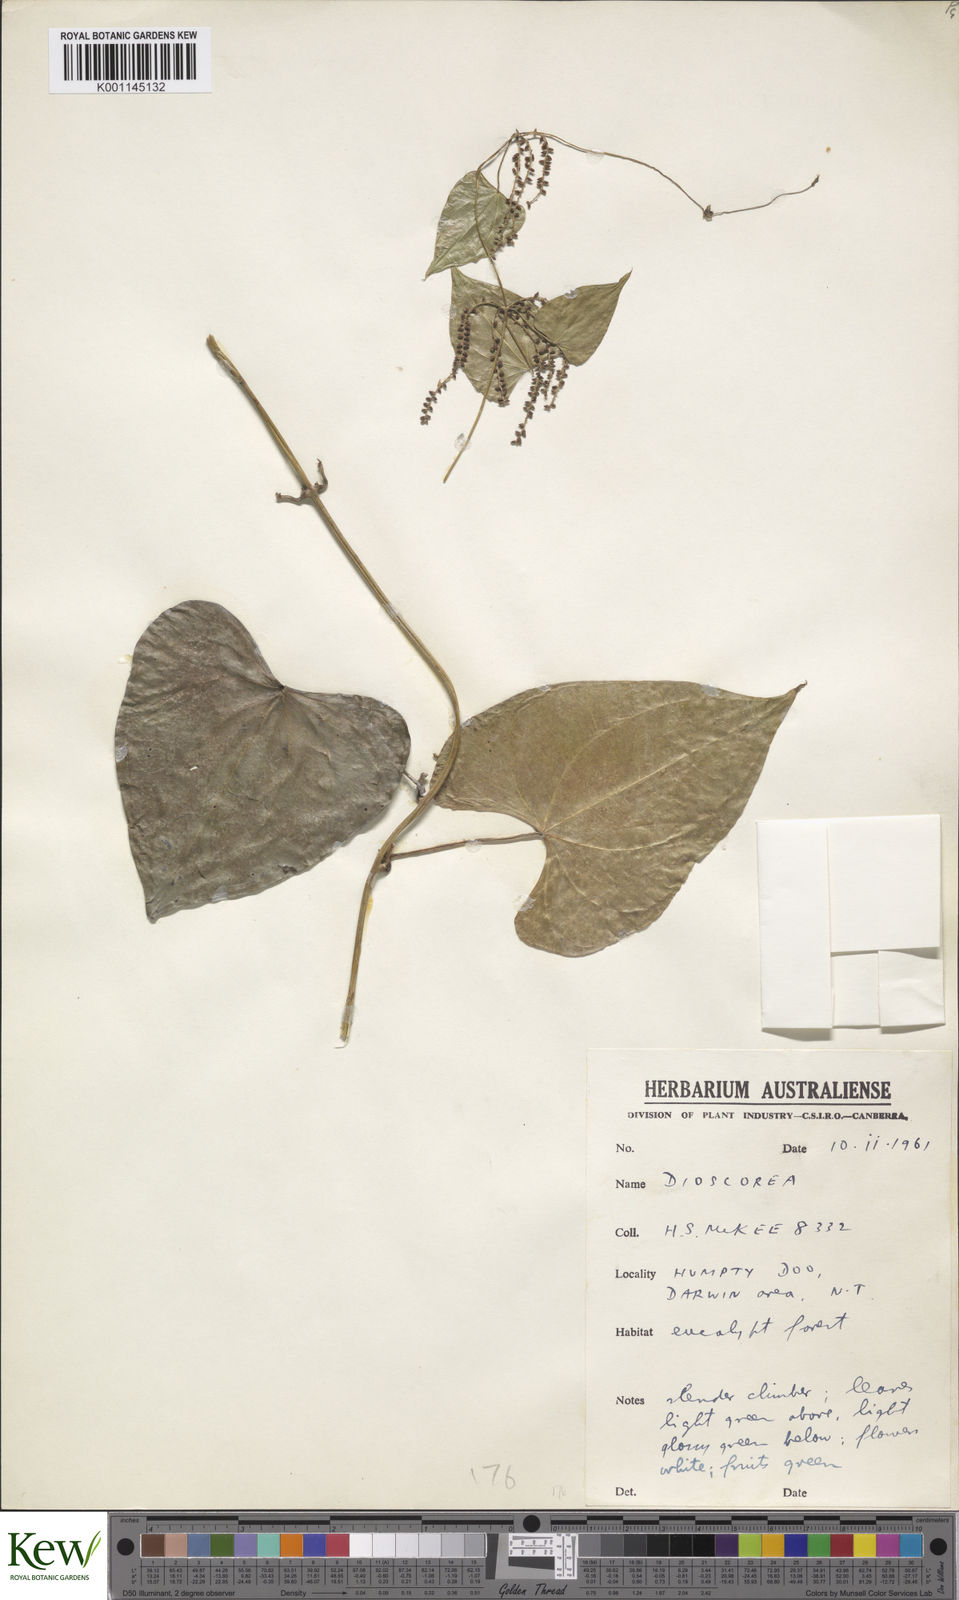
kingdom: Plantae
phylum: Tracheophyta
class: Liliopsida
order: Dioscoreales
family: Dioscoreaceae
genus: Dioscorea
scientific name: Dioscorea transversa
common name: Long yam
